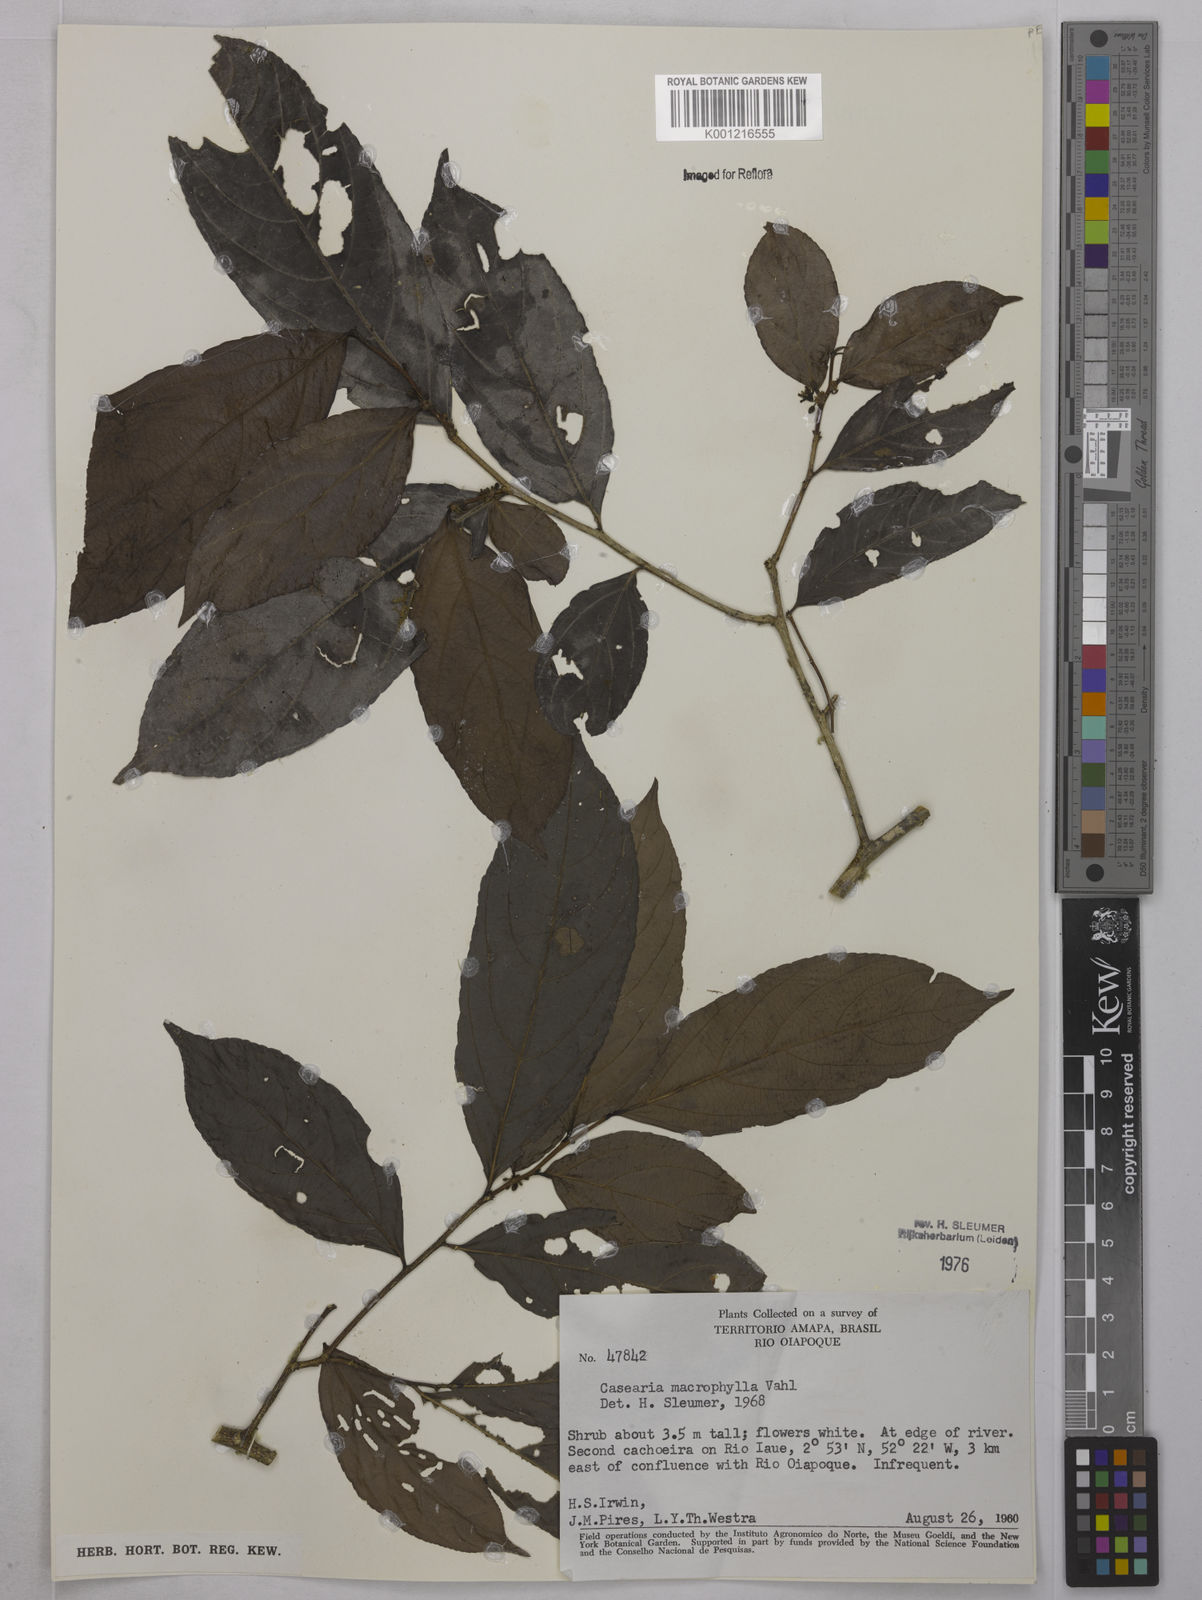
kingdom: Plantae
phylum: Tracheophyta
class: Magnoliopsida
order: Malpighiales
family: Salicaceae
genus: Casearia
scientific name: Casearia pitumba
